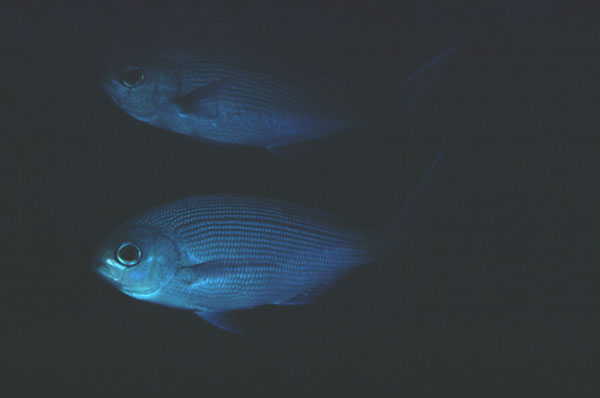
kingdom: Animalia
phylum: Chordata
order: Perciformes
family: Lutjanidae
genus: Paracaesio
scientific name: Paracaesio sordida
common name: Blue snapper
